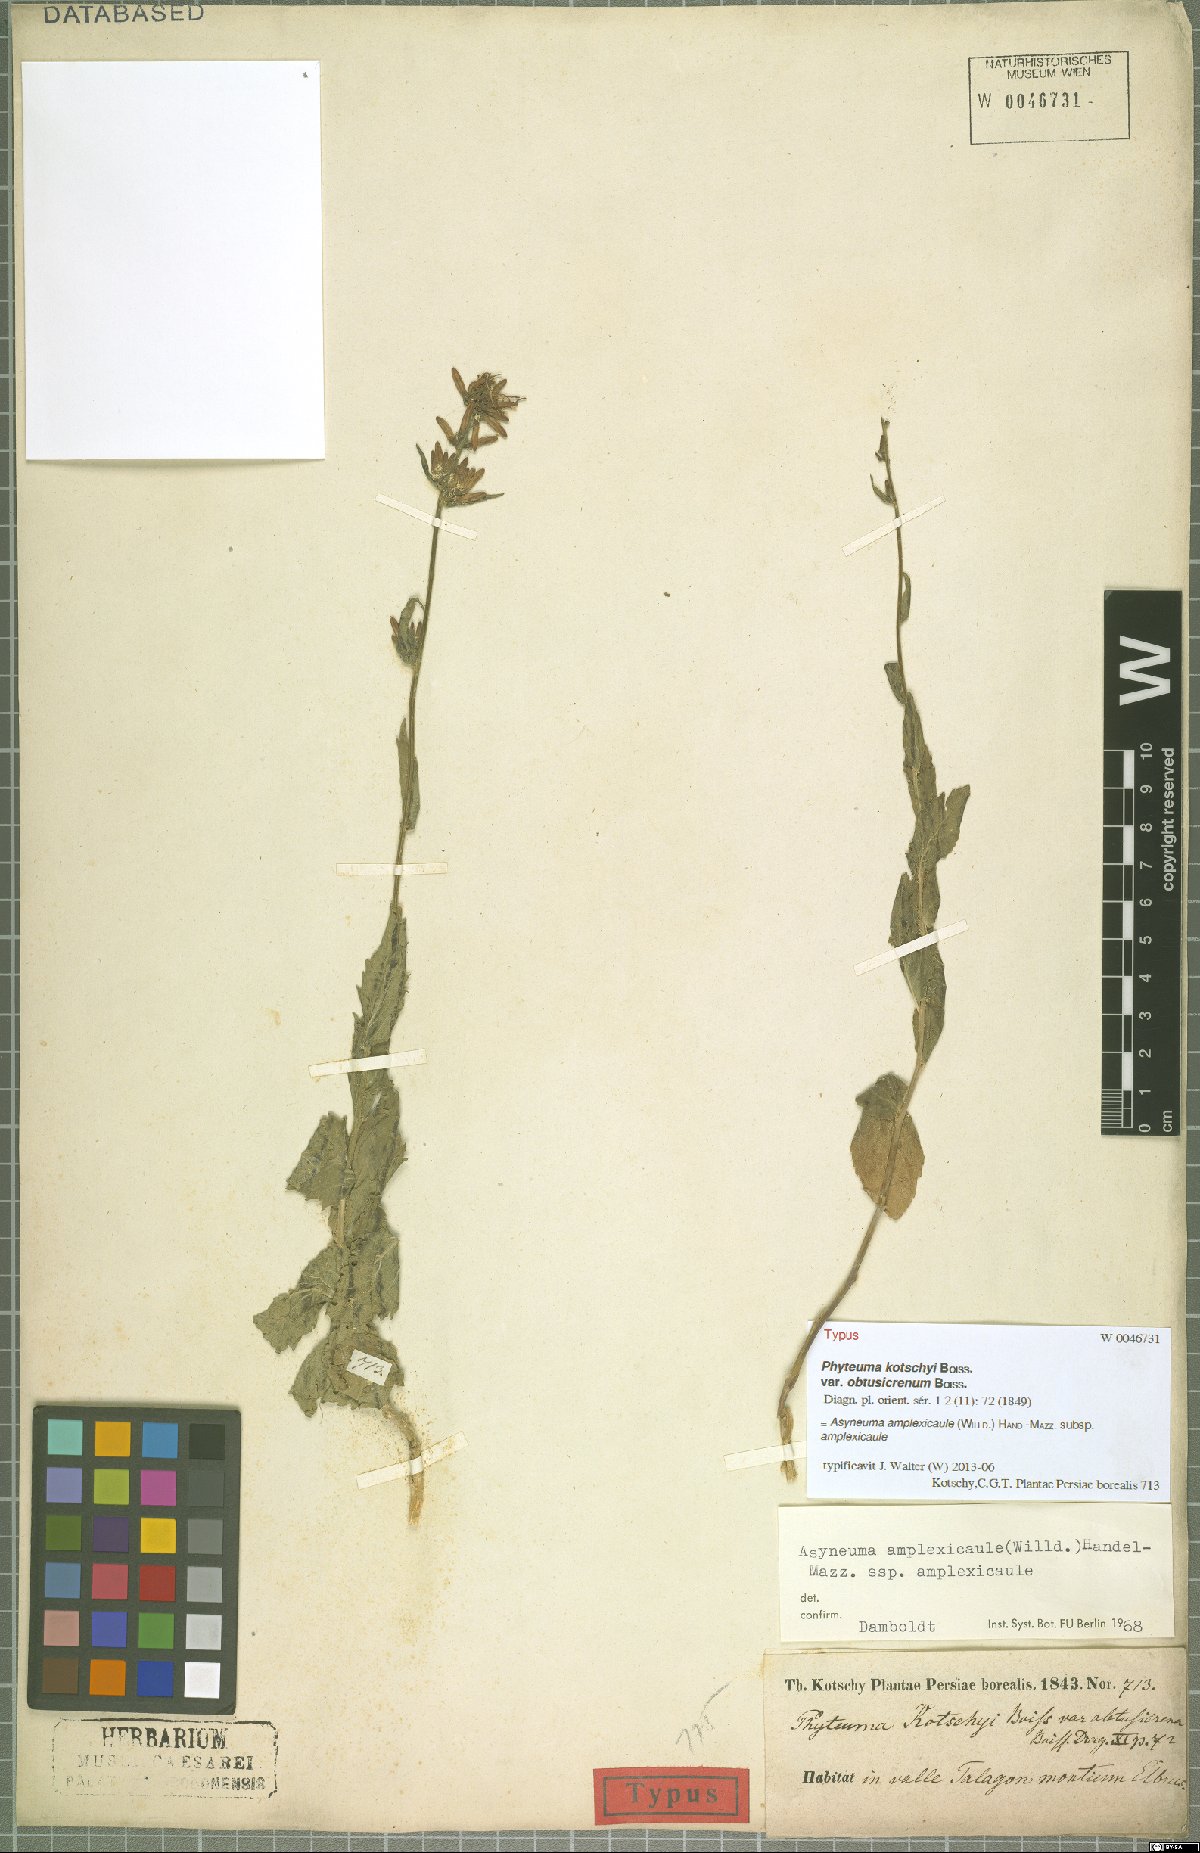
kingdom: Plantae
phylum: Tracheophyta
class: Magnoliopsida
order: Asterales
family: Campanulaceae
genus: Asyneuma
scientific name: Asyneuma amplexicaule
